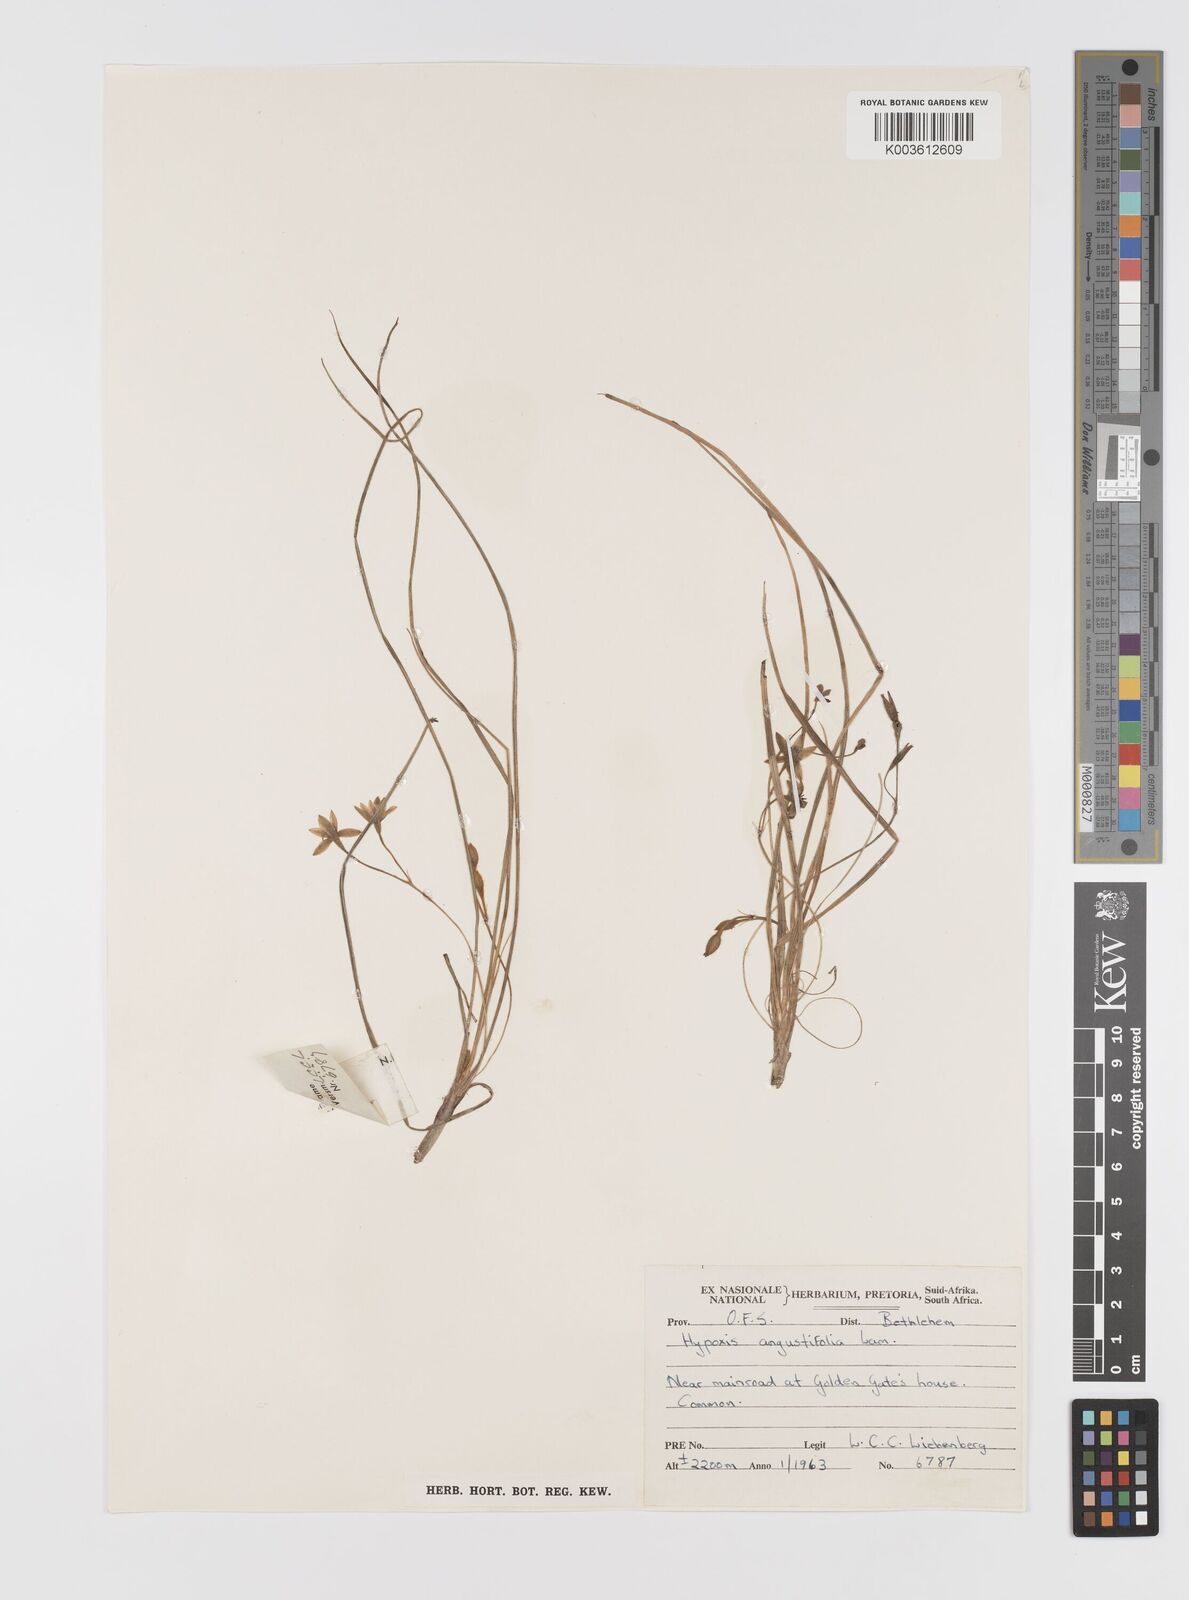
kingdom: Plantae
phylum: Tracheophyta
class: Liliopsida
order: Asparagales
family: Hypoxidaceae
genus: Hypoxis
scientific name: Hypoxis angustifolia
